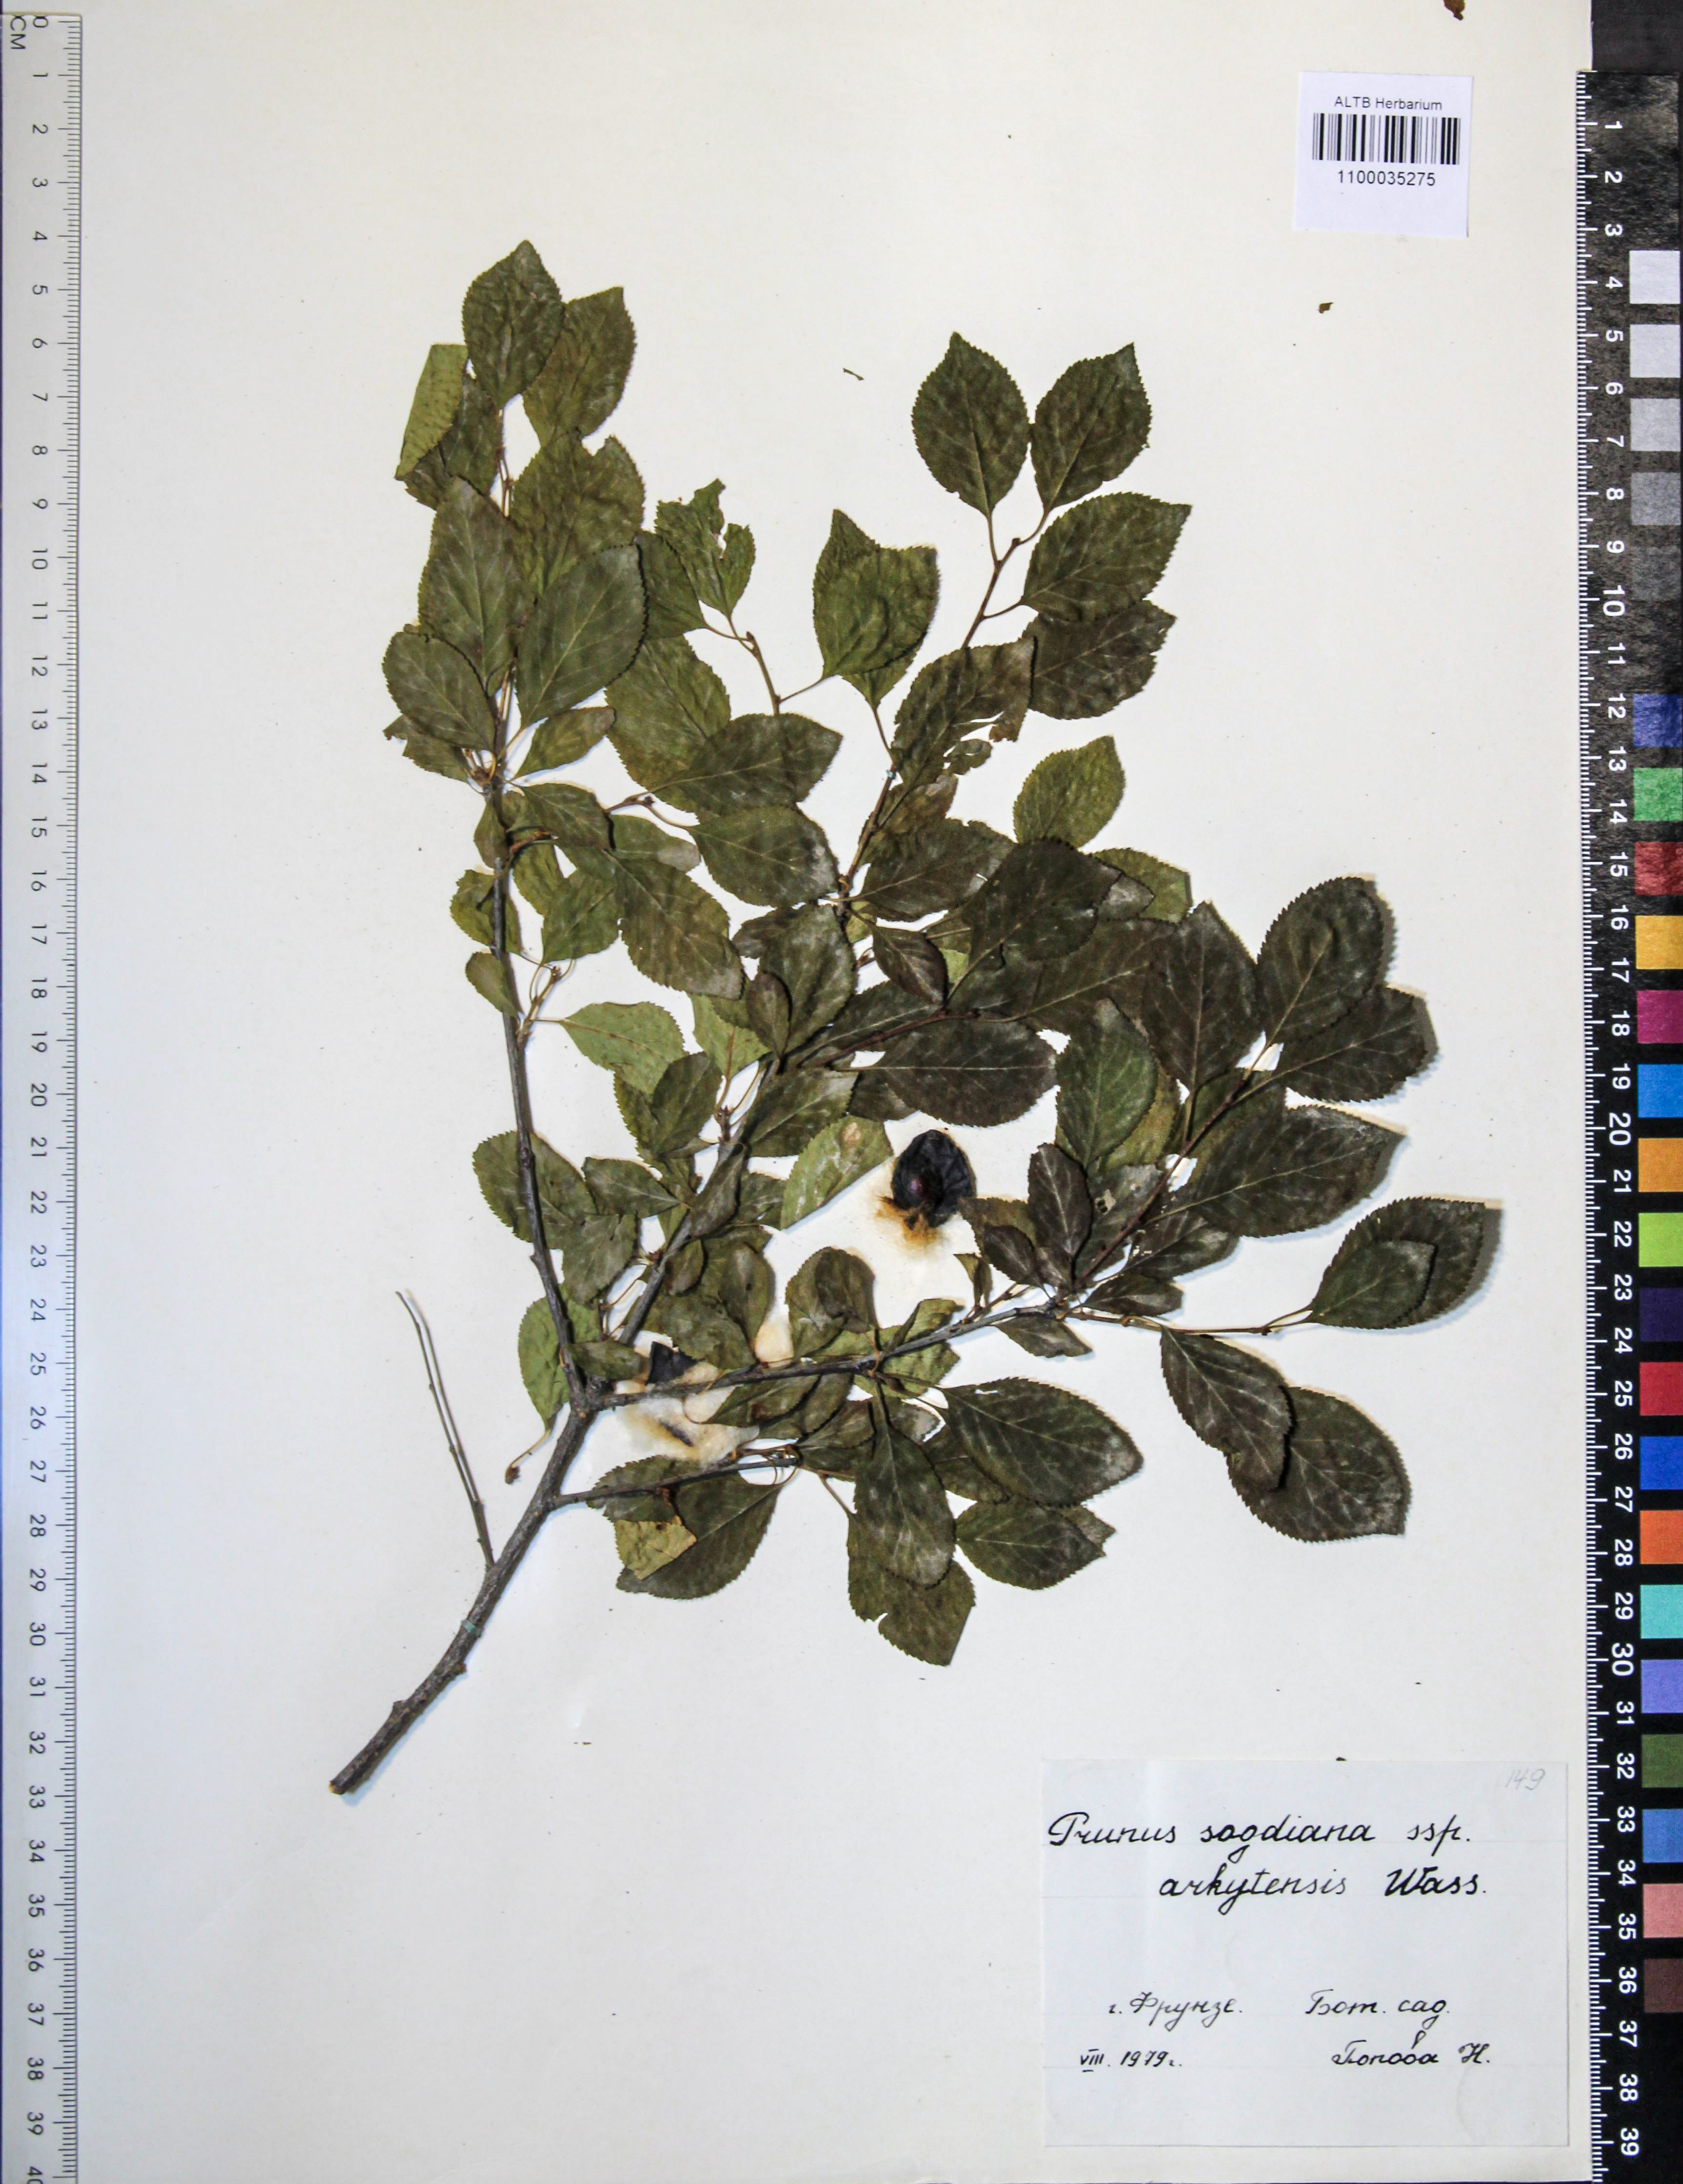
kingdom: Plantae
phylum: Tracheophyta
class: Magnoliopsida
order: Rosales
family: Rosaceae
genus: Prunus
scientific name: Prunus cerasifera
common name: Cherry plum
